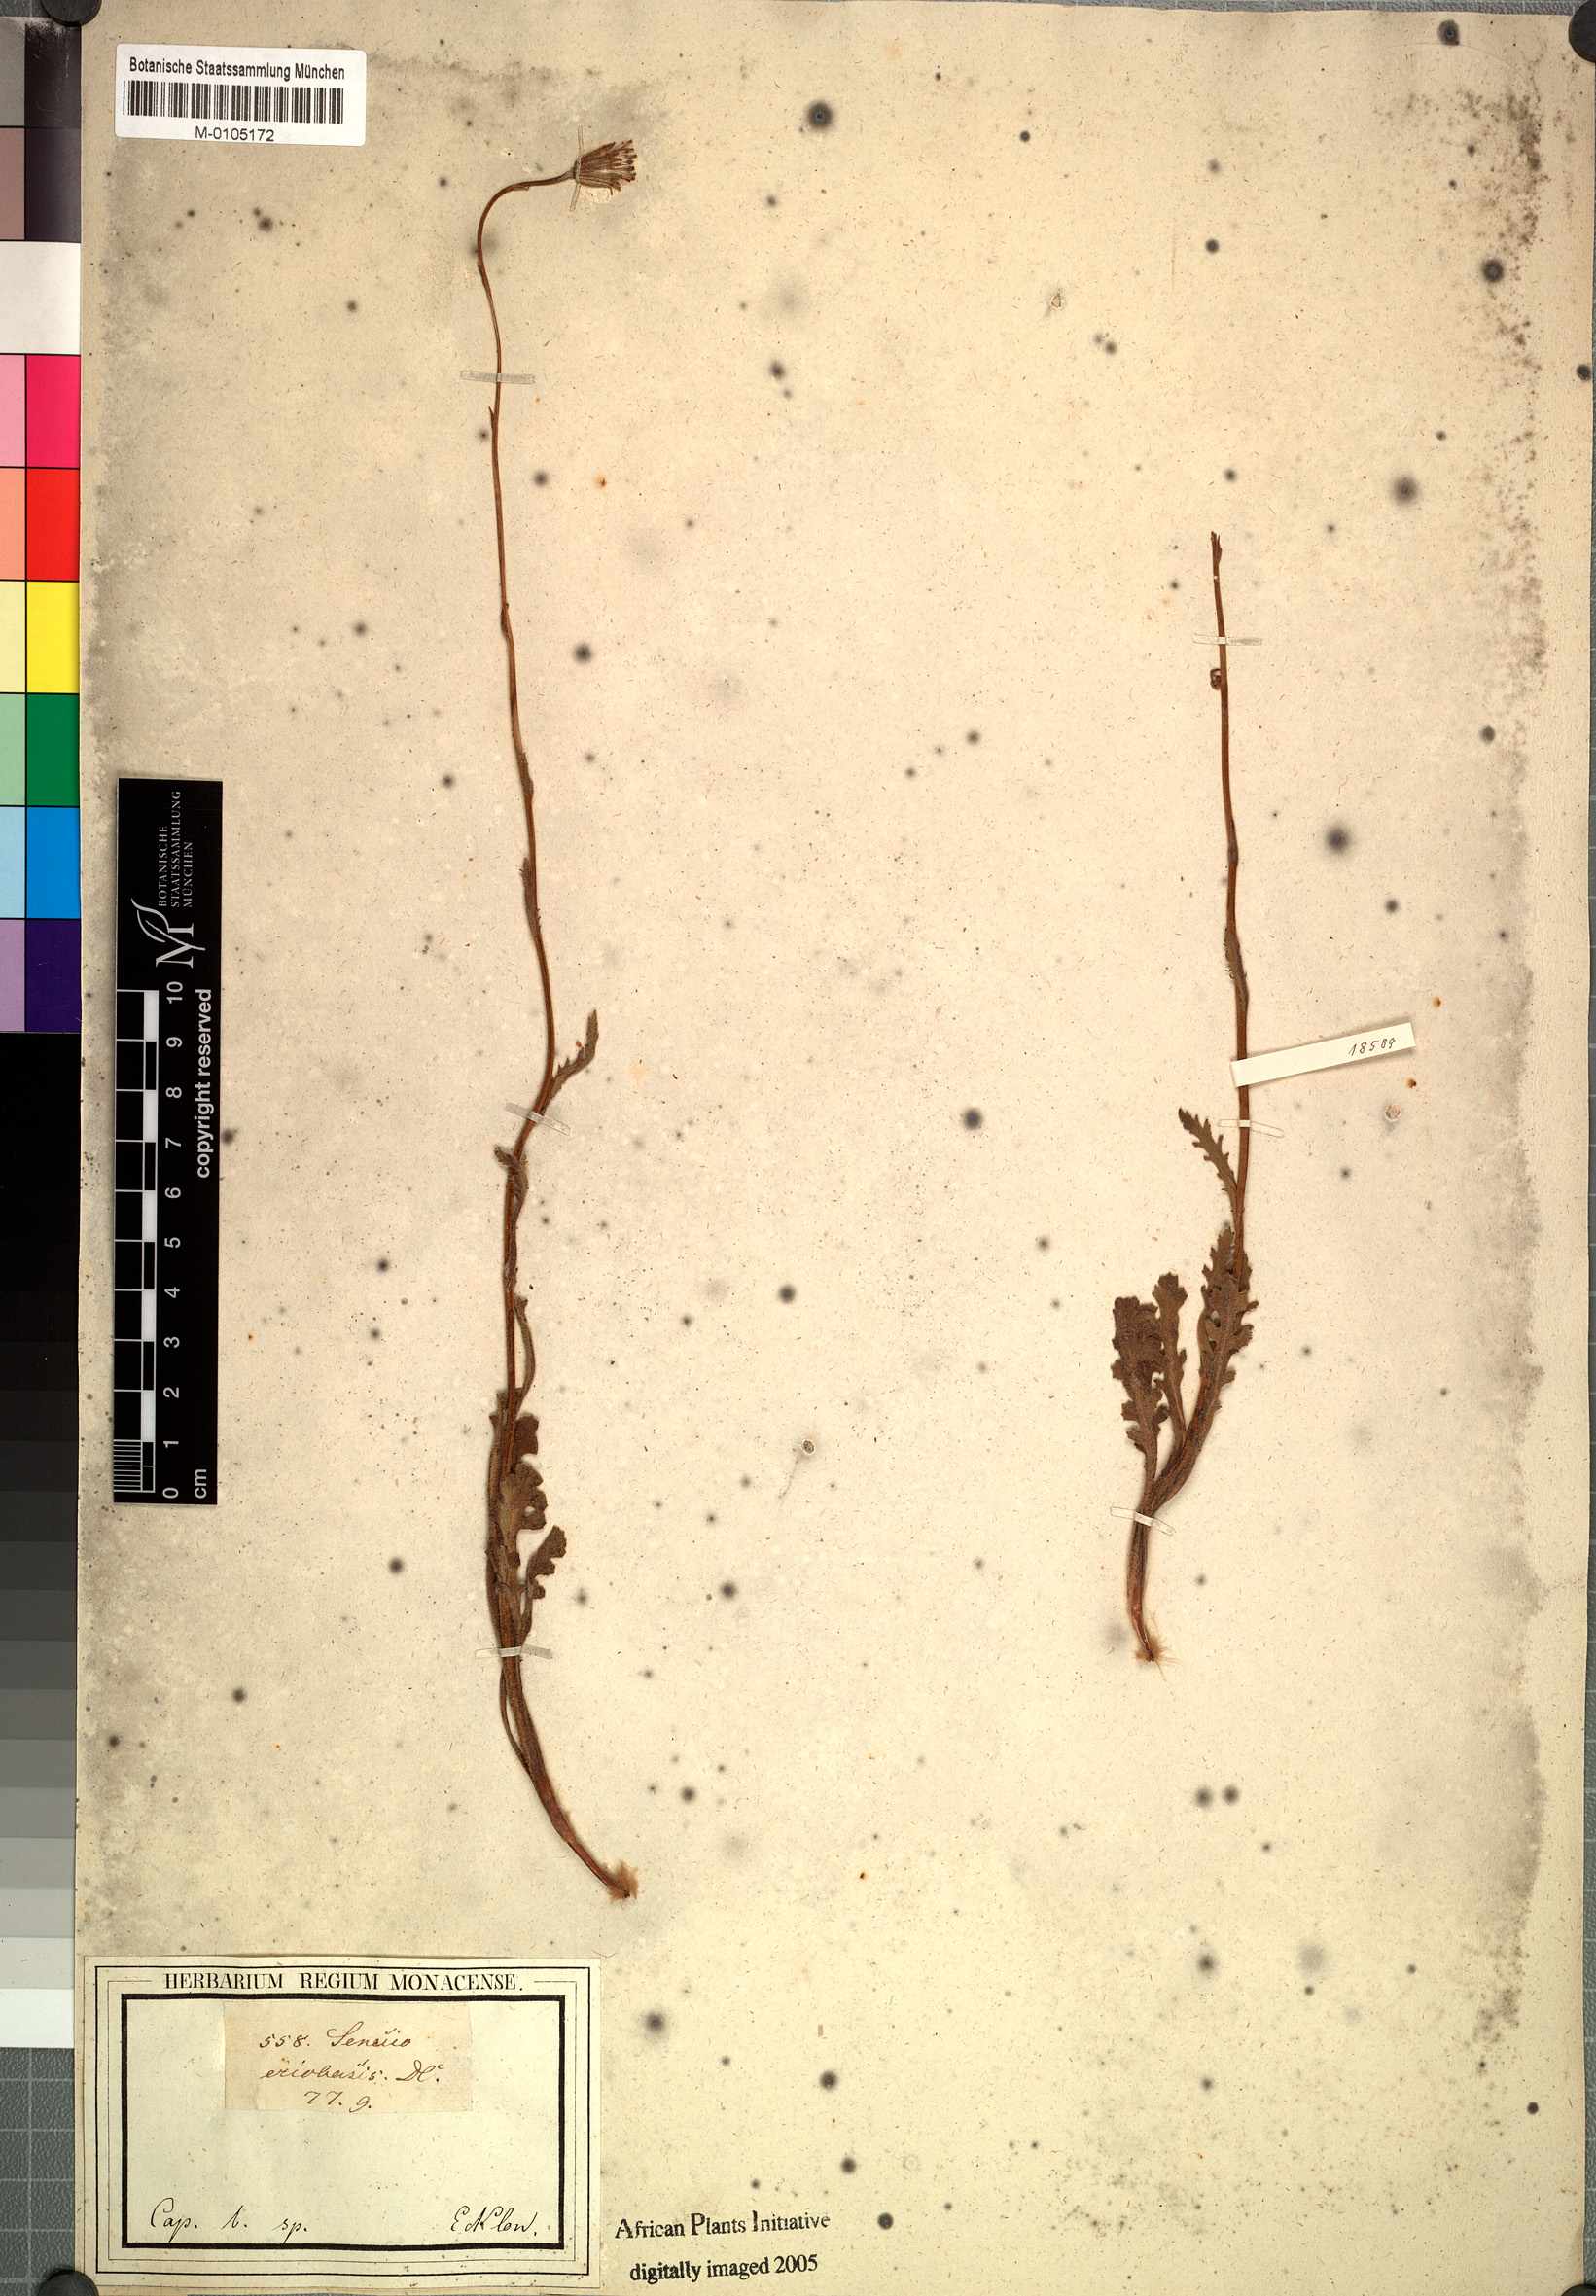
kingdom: Plantae
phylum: Tracheophyta
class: Magnoliopsida
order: Asterales
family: Asteraceae
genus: Senecio
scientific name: Senecio eriobasis
